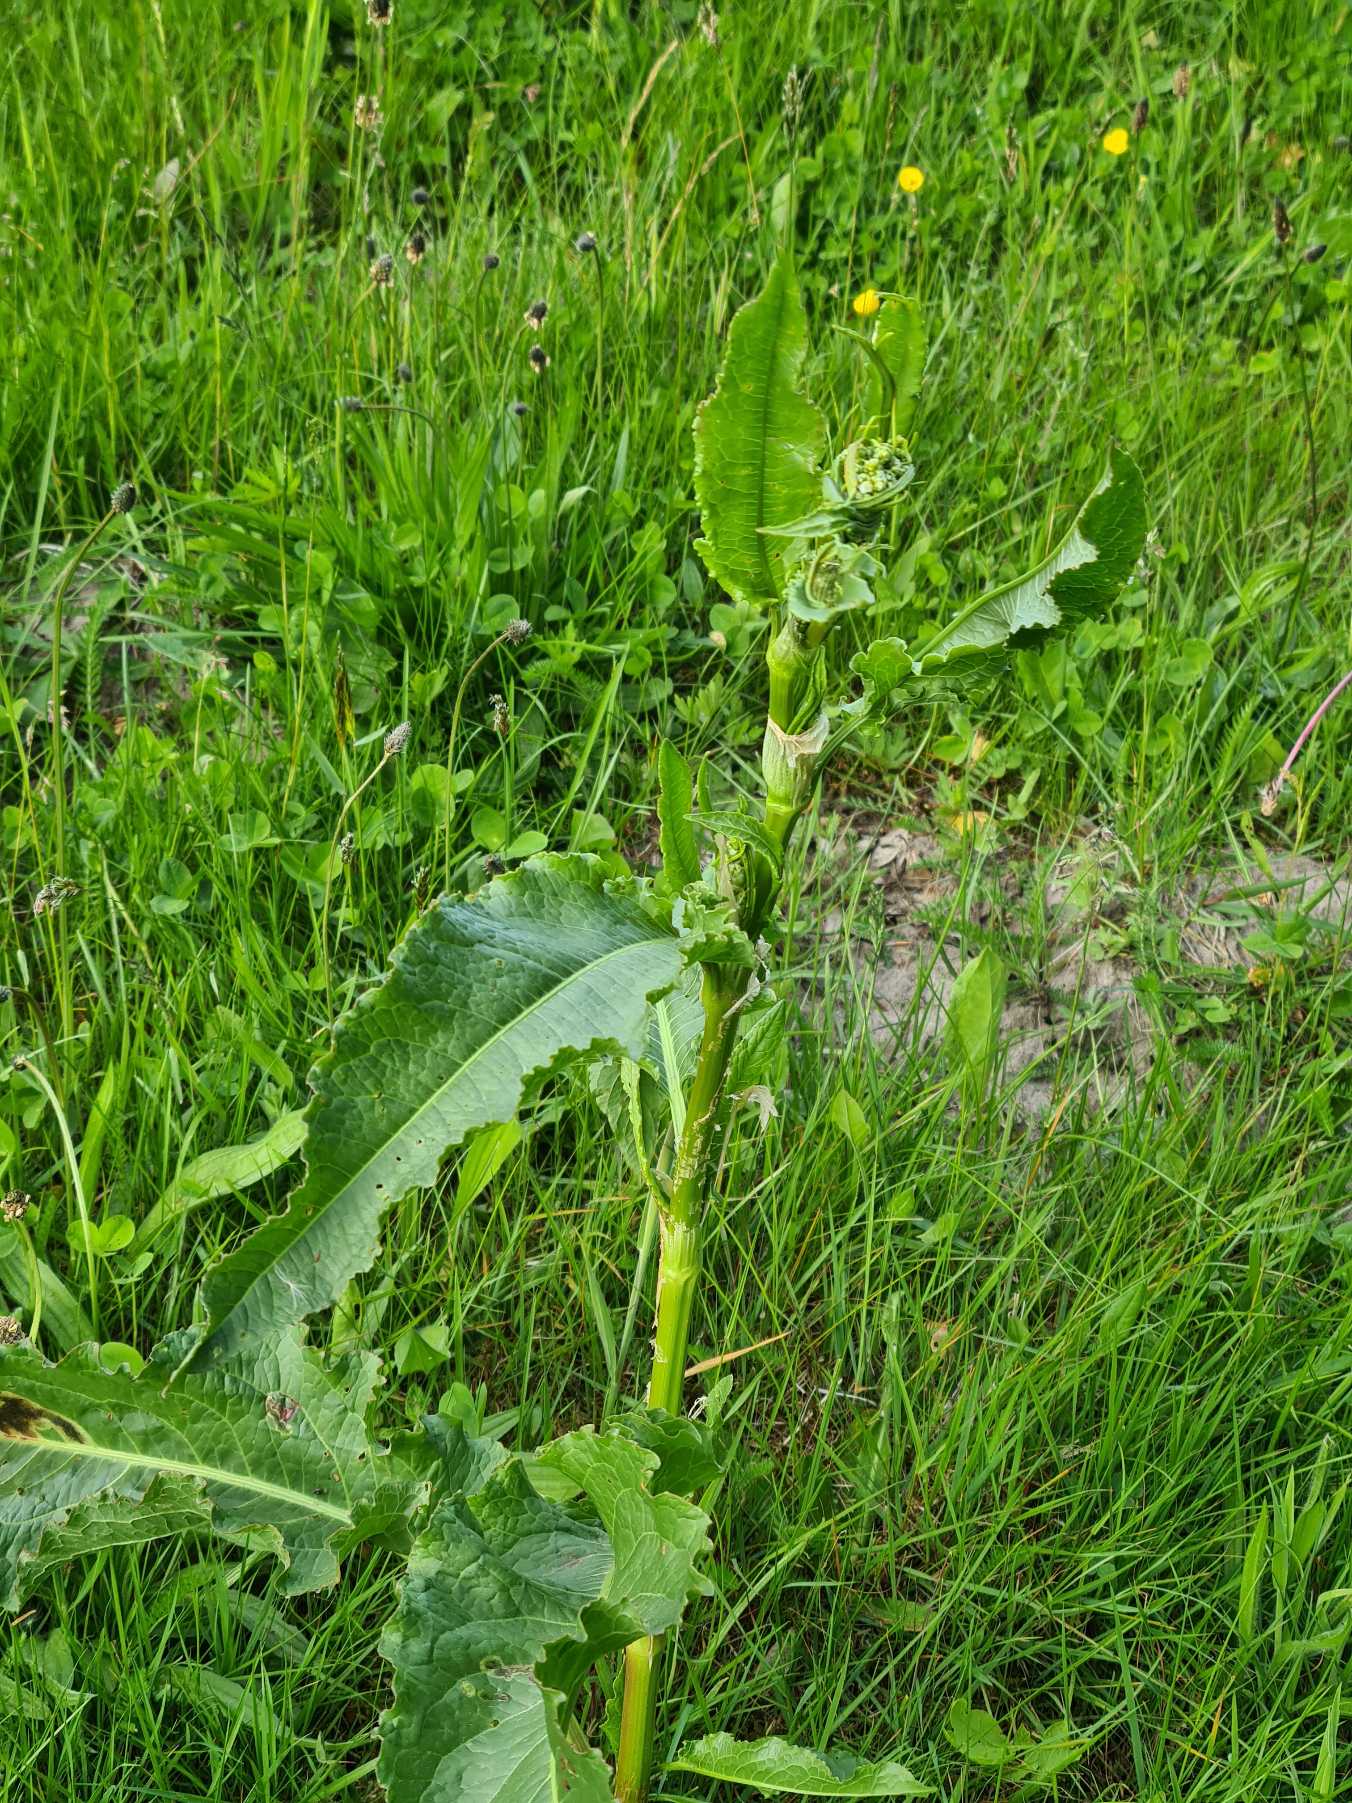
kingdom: Plantae
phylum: Tracheophyta
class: Magnoliopsida
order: Caryophyllales
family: Polygonaceae
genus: Rumex
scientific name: Rumex crispus
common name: Kruset skræppe
